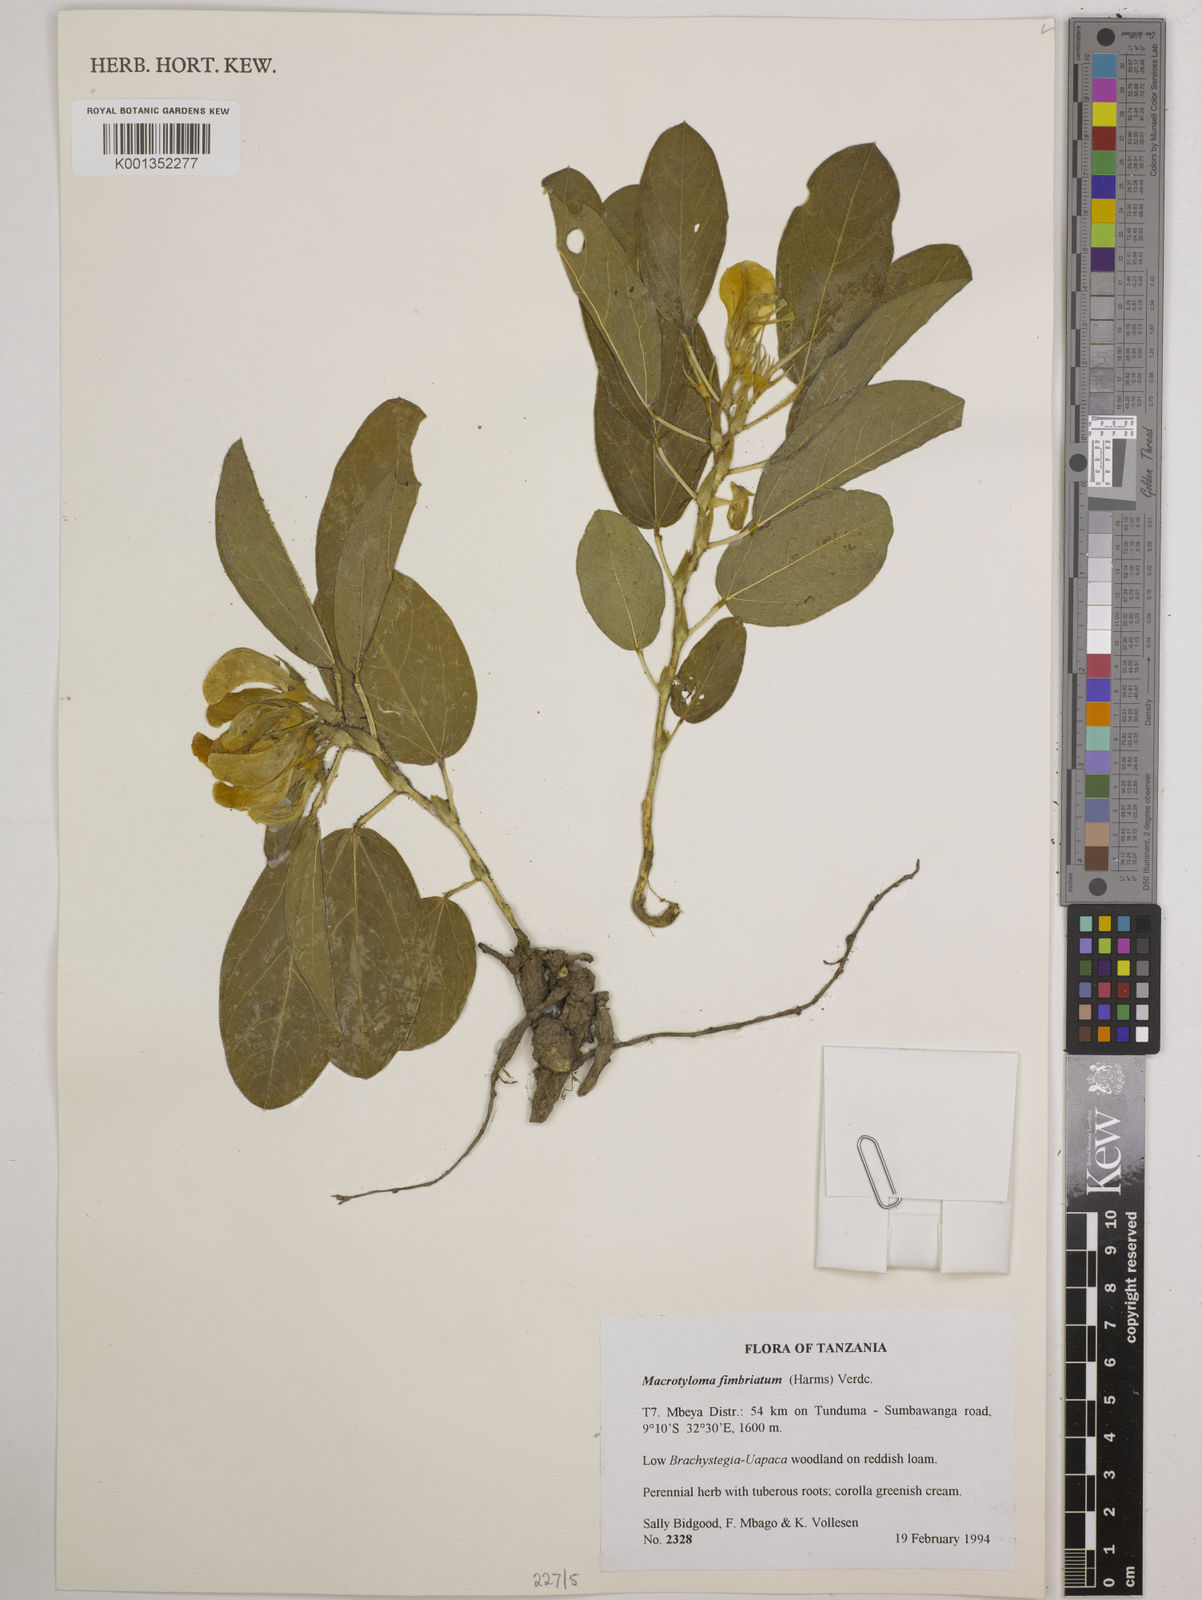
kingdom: Plantae
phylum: Tracheophyta
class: Magnoliopsida
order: Fabales
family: Fabaceae
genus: Macrotyloma
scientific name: Macrotyloma fimbriatum
